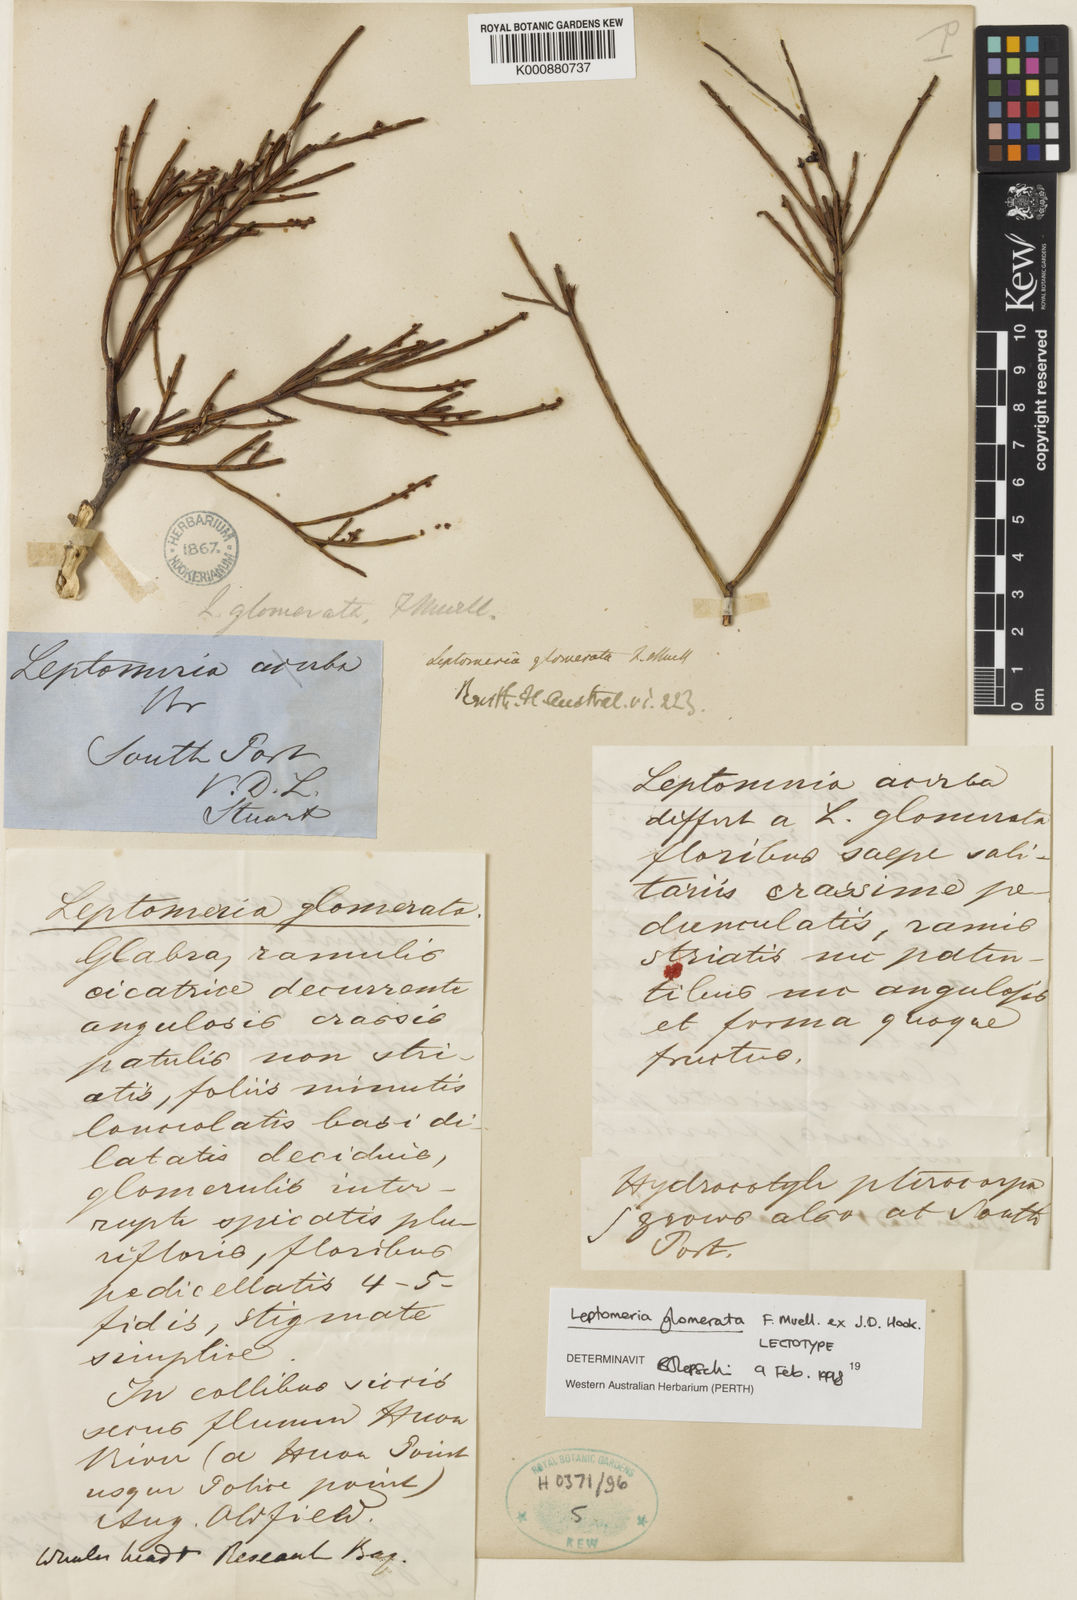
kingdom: Plantae
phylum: Tracheophyta
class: Magnoliopsida
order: Santalales
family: Amphorogynaceae
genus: Leptomeria
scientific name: Leptomeria glomerata
